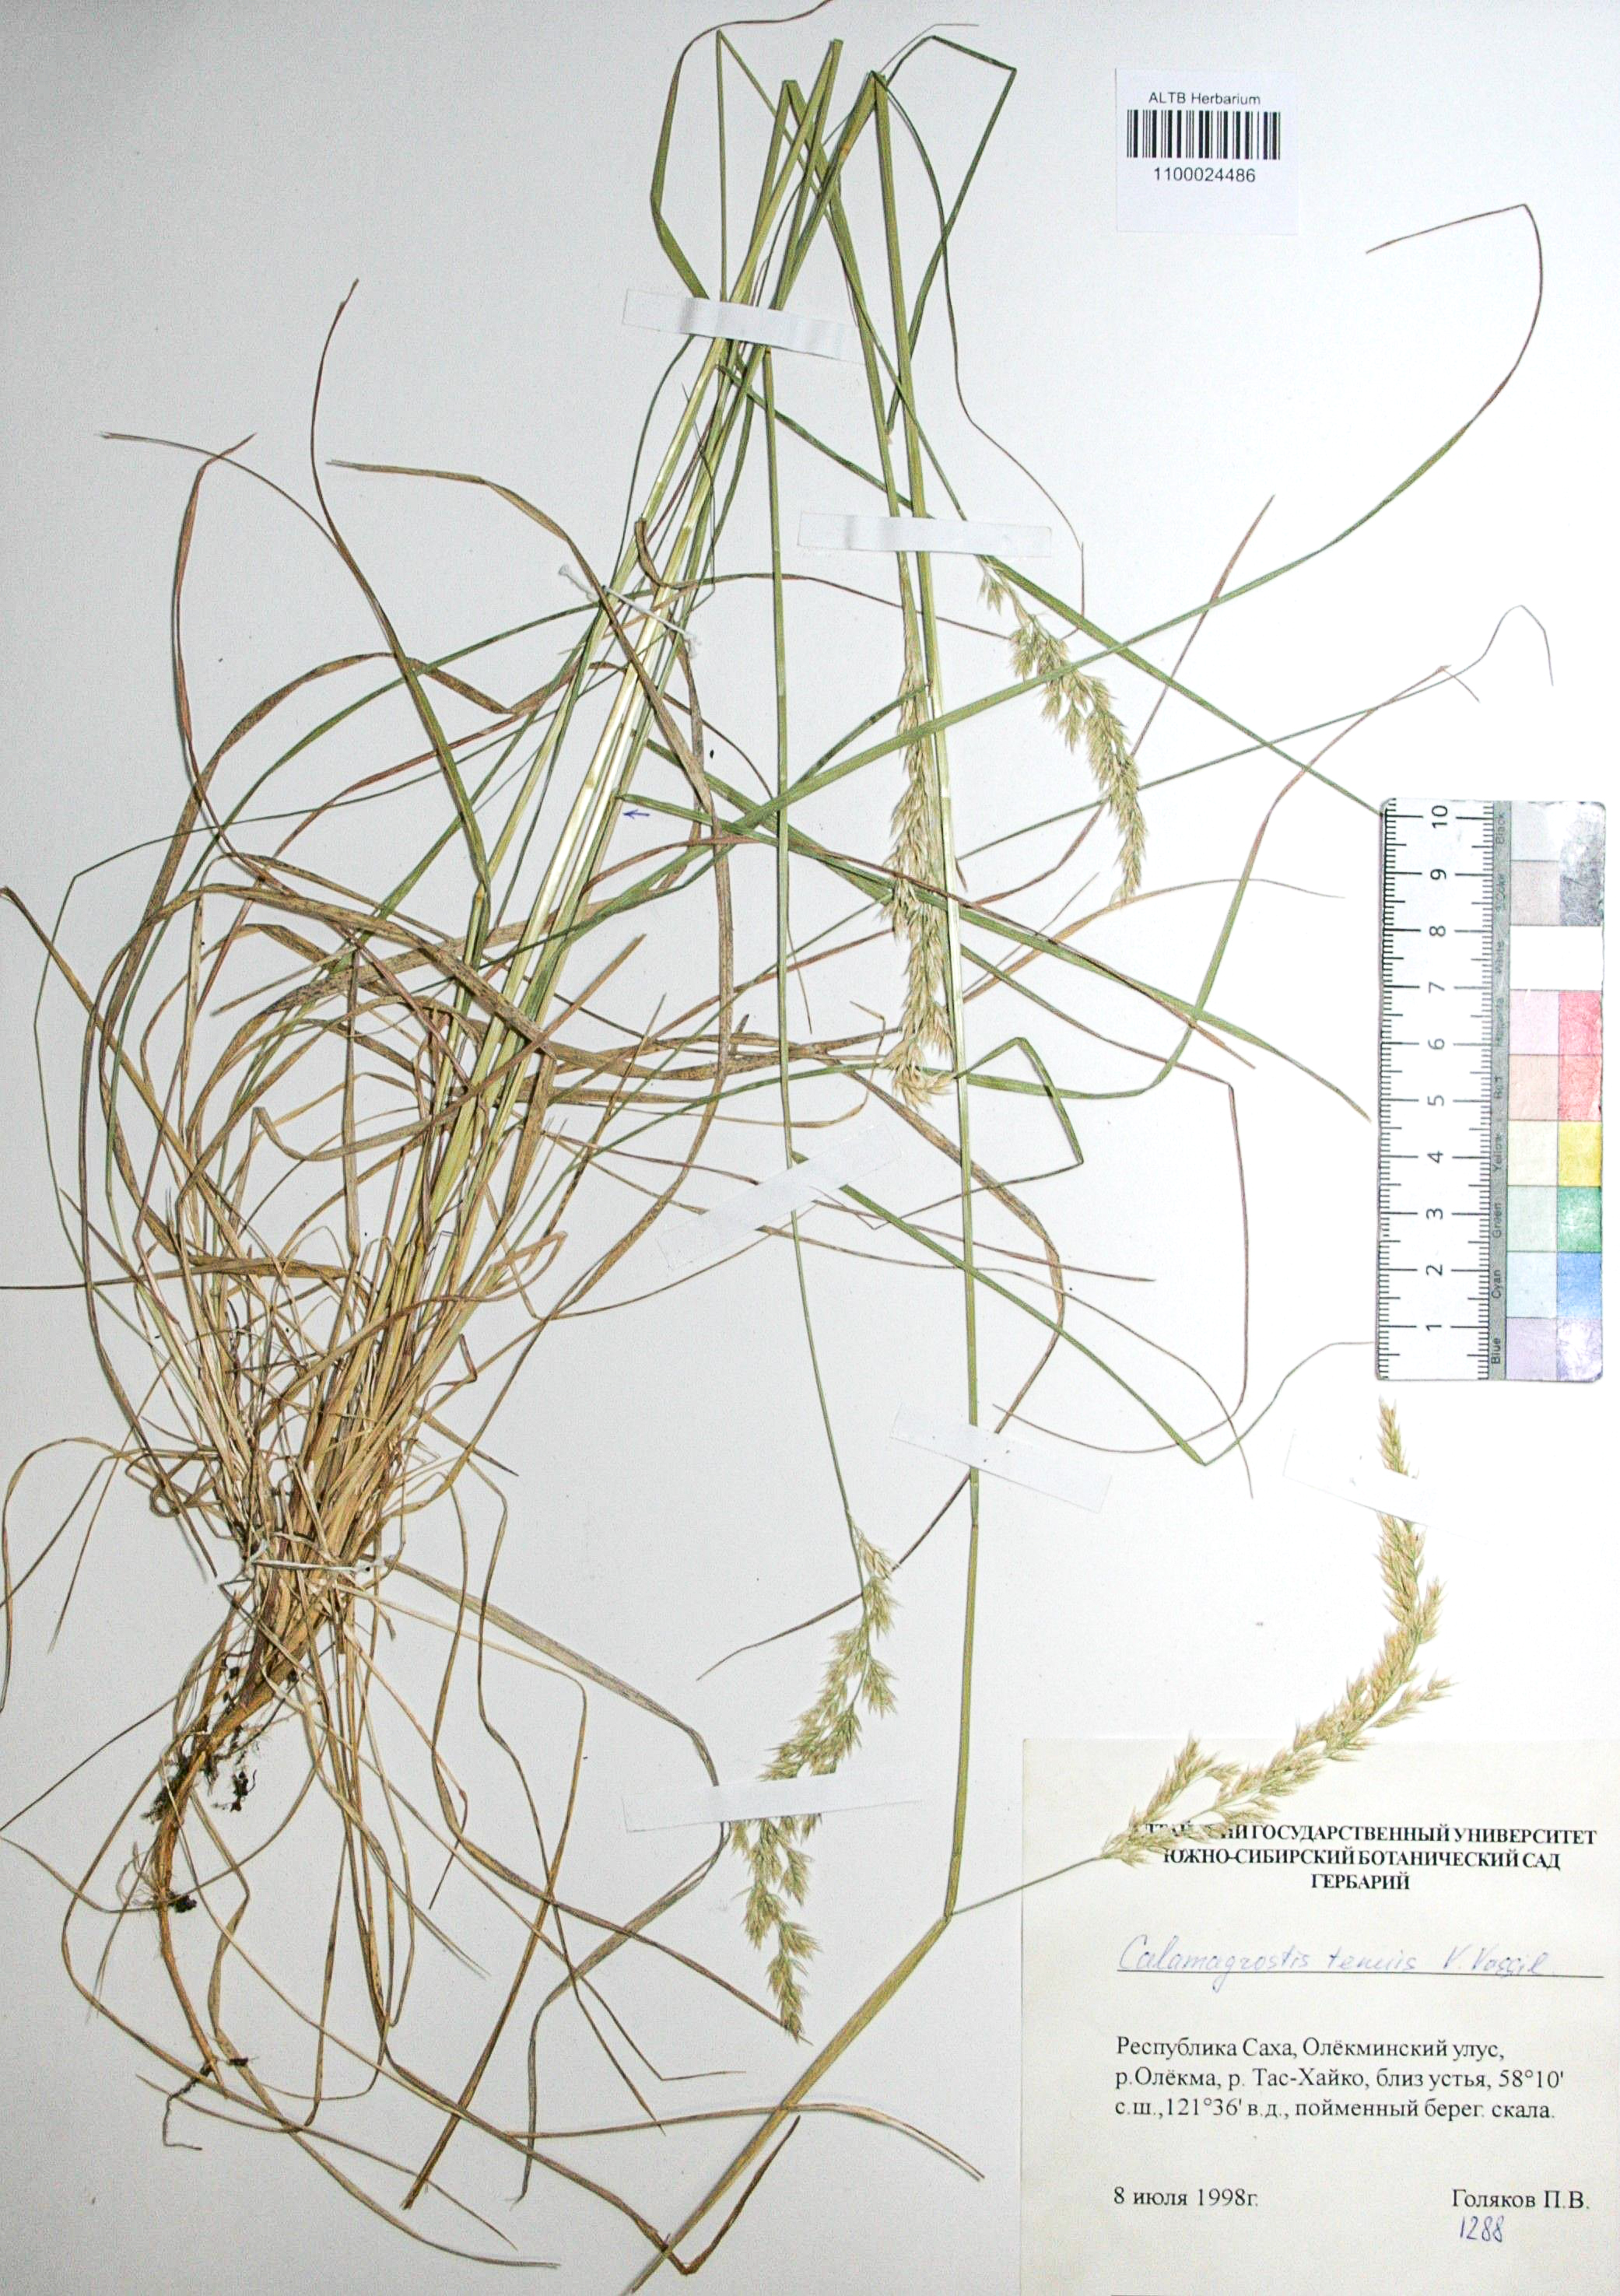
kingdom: Plantae
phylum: Tracheophyta
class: Liliopsida
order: Poales
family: Poaceae
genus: Calamagrostis
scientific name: Calamagrostis angustifolia
